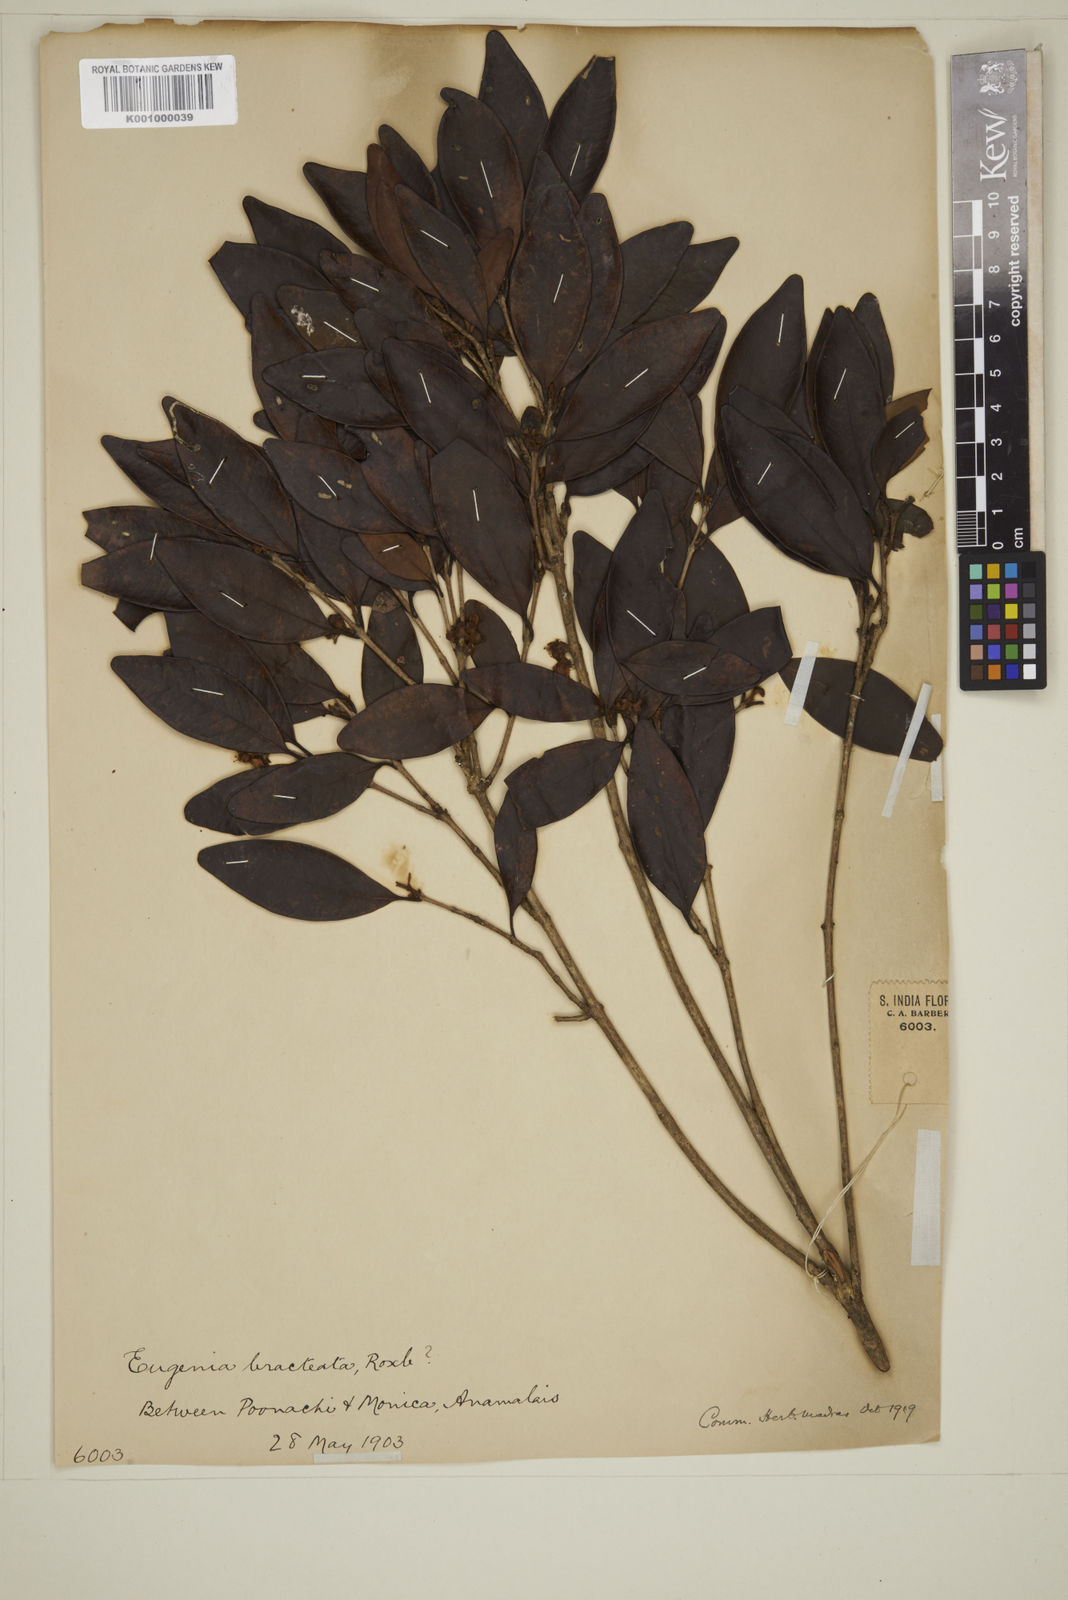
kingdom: Plantae
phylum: Tracheophyta
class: Magnoliopsida
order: Myrtales
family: Myrtaceae
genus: Myrcia
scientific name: Myrcia bracteata
